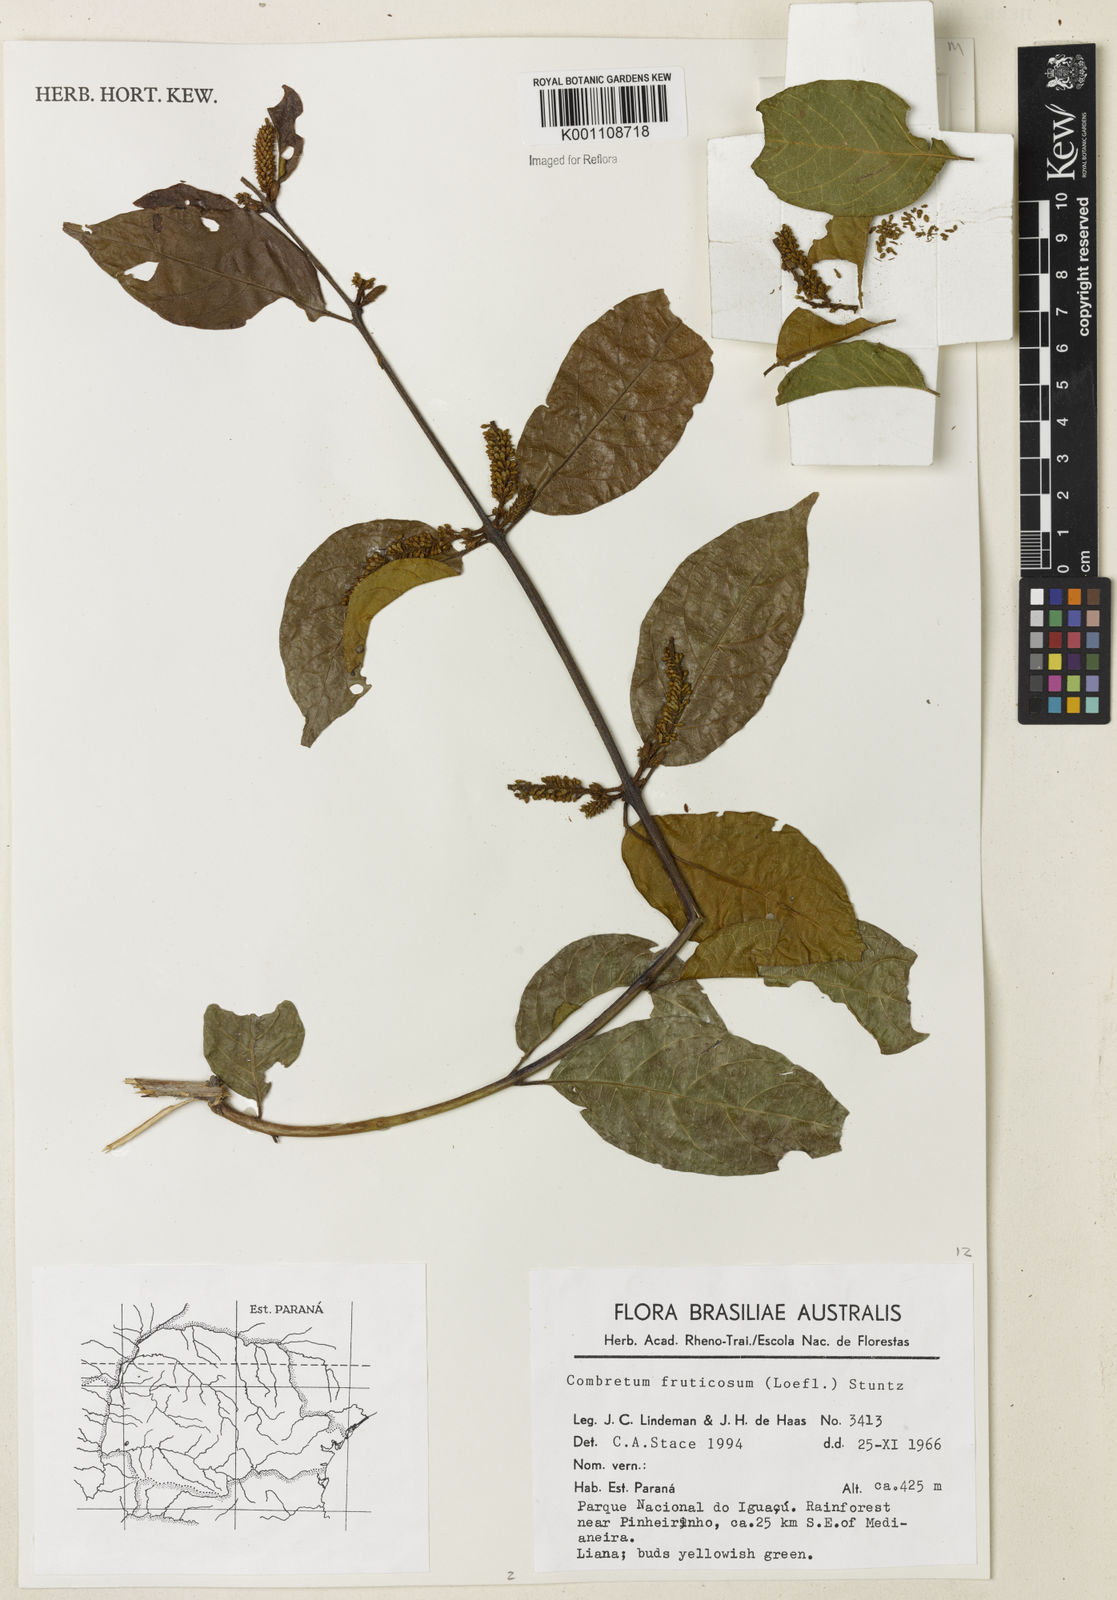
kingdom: Plantae
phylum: Tracheophyta
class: Magnoliopsida
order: Myrtales
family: Combretaceae
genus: Combretum
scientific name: Combretum fruticosum
